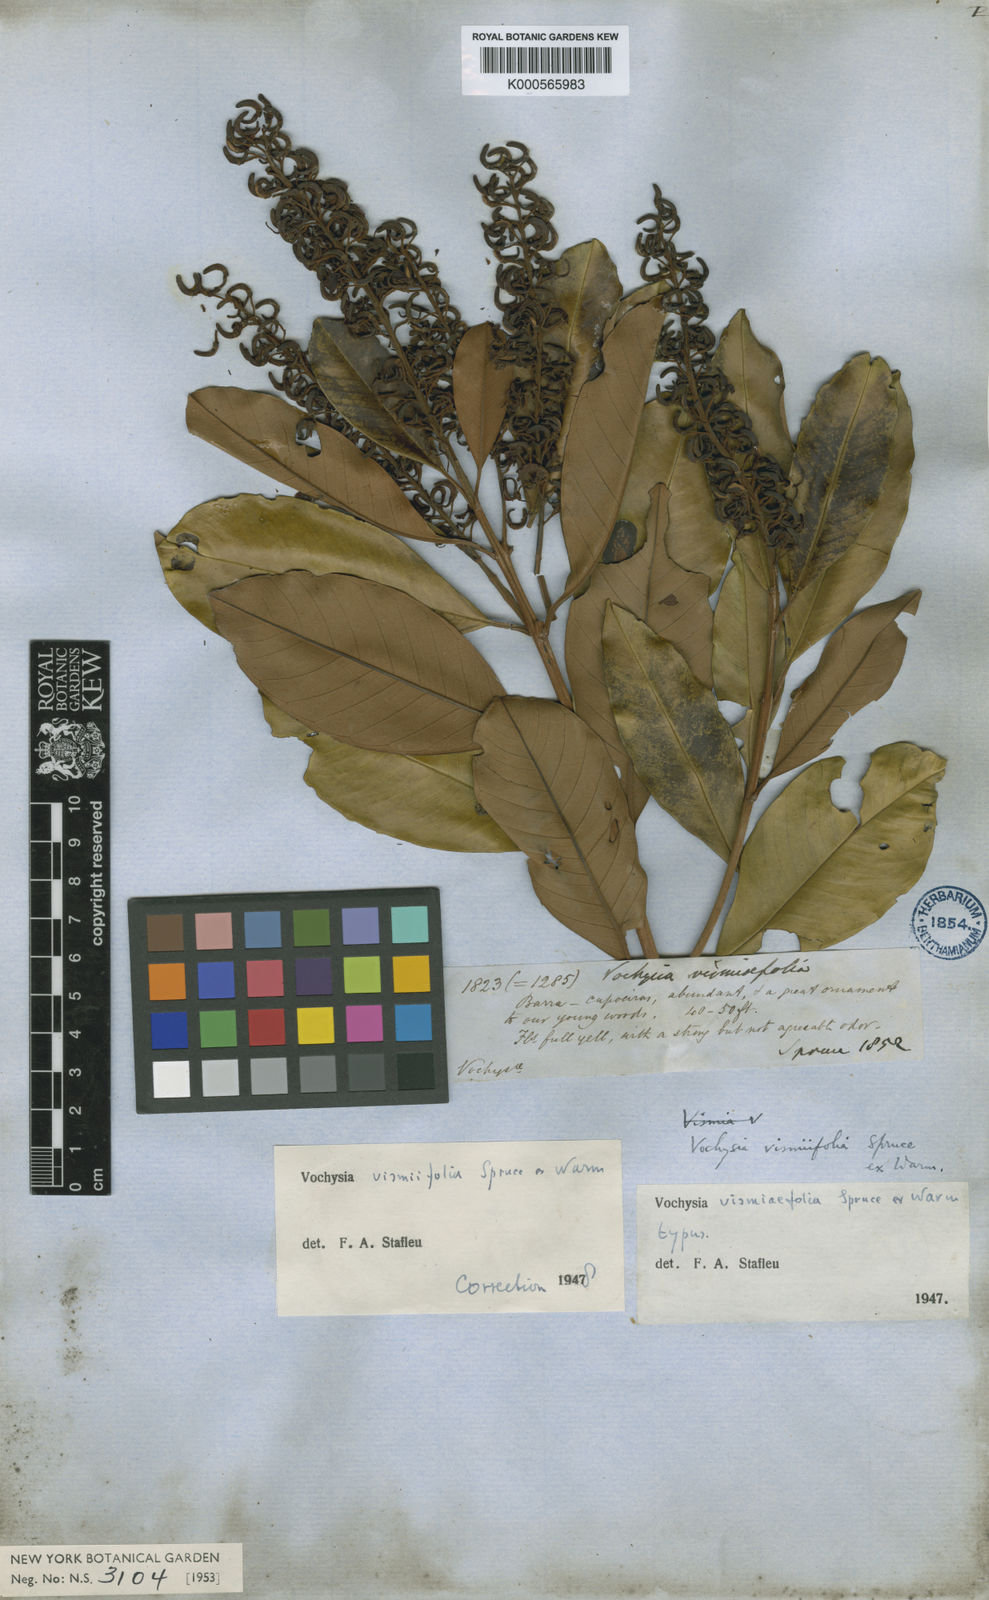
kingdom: Plantae
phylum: Tracheophyta
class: Magnoliopsida
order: Myrtales
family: Vochysiaceae
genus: Vochysia
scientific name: Vochysia vismiifolia
